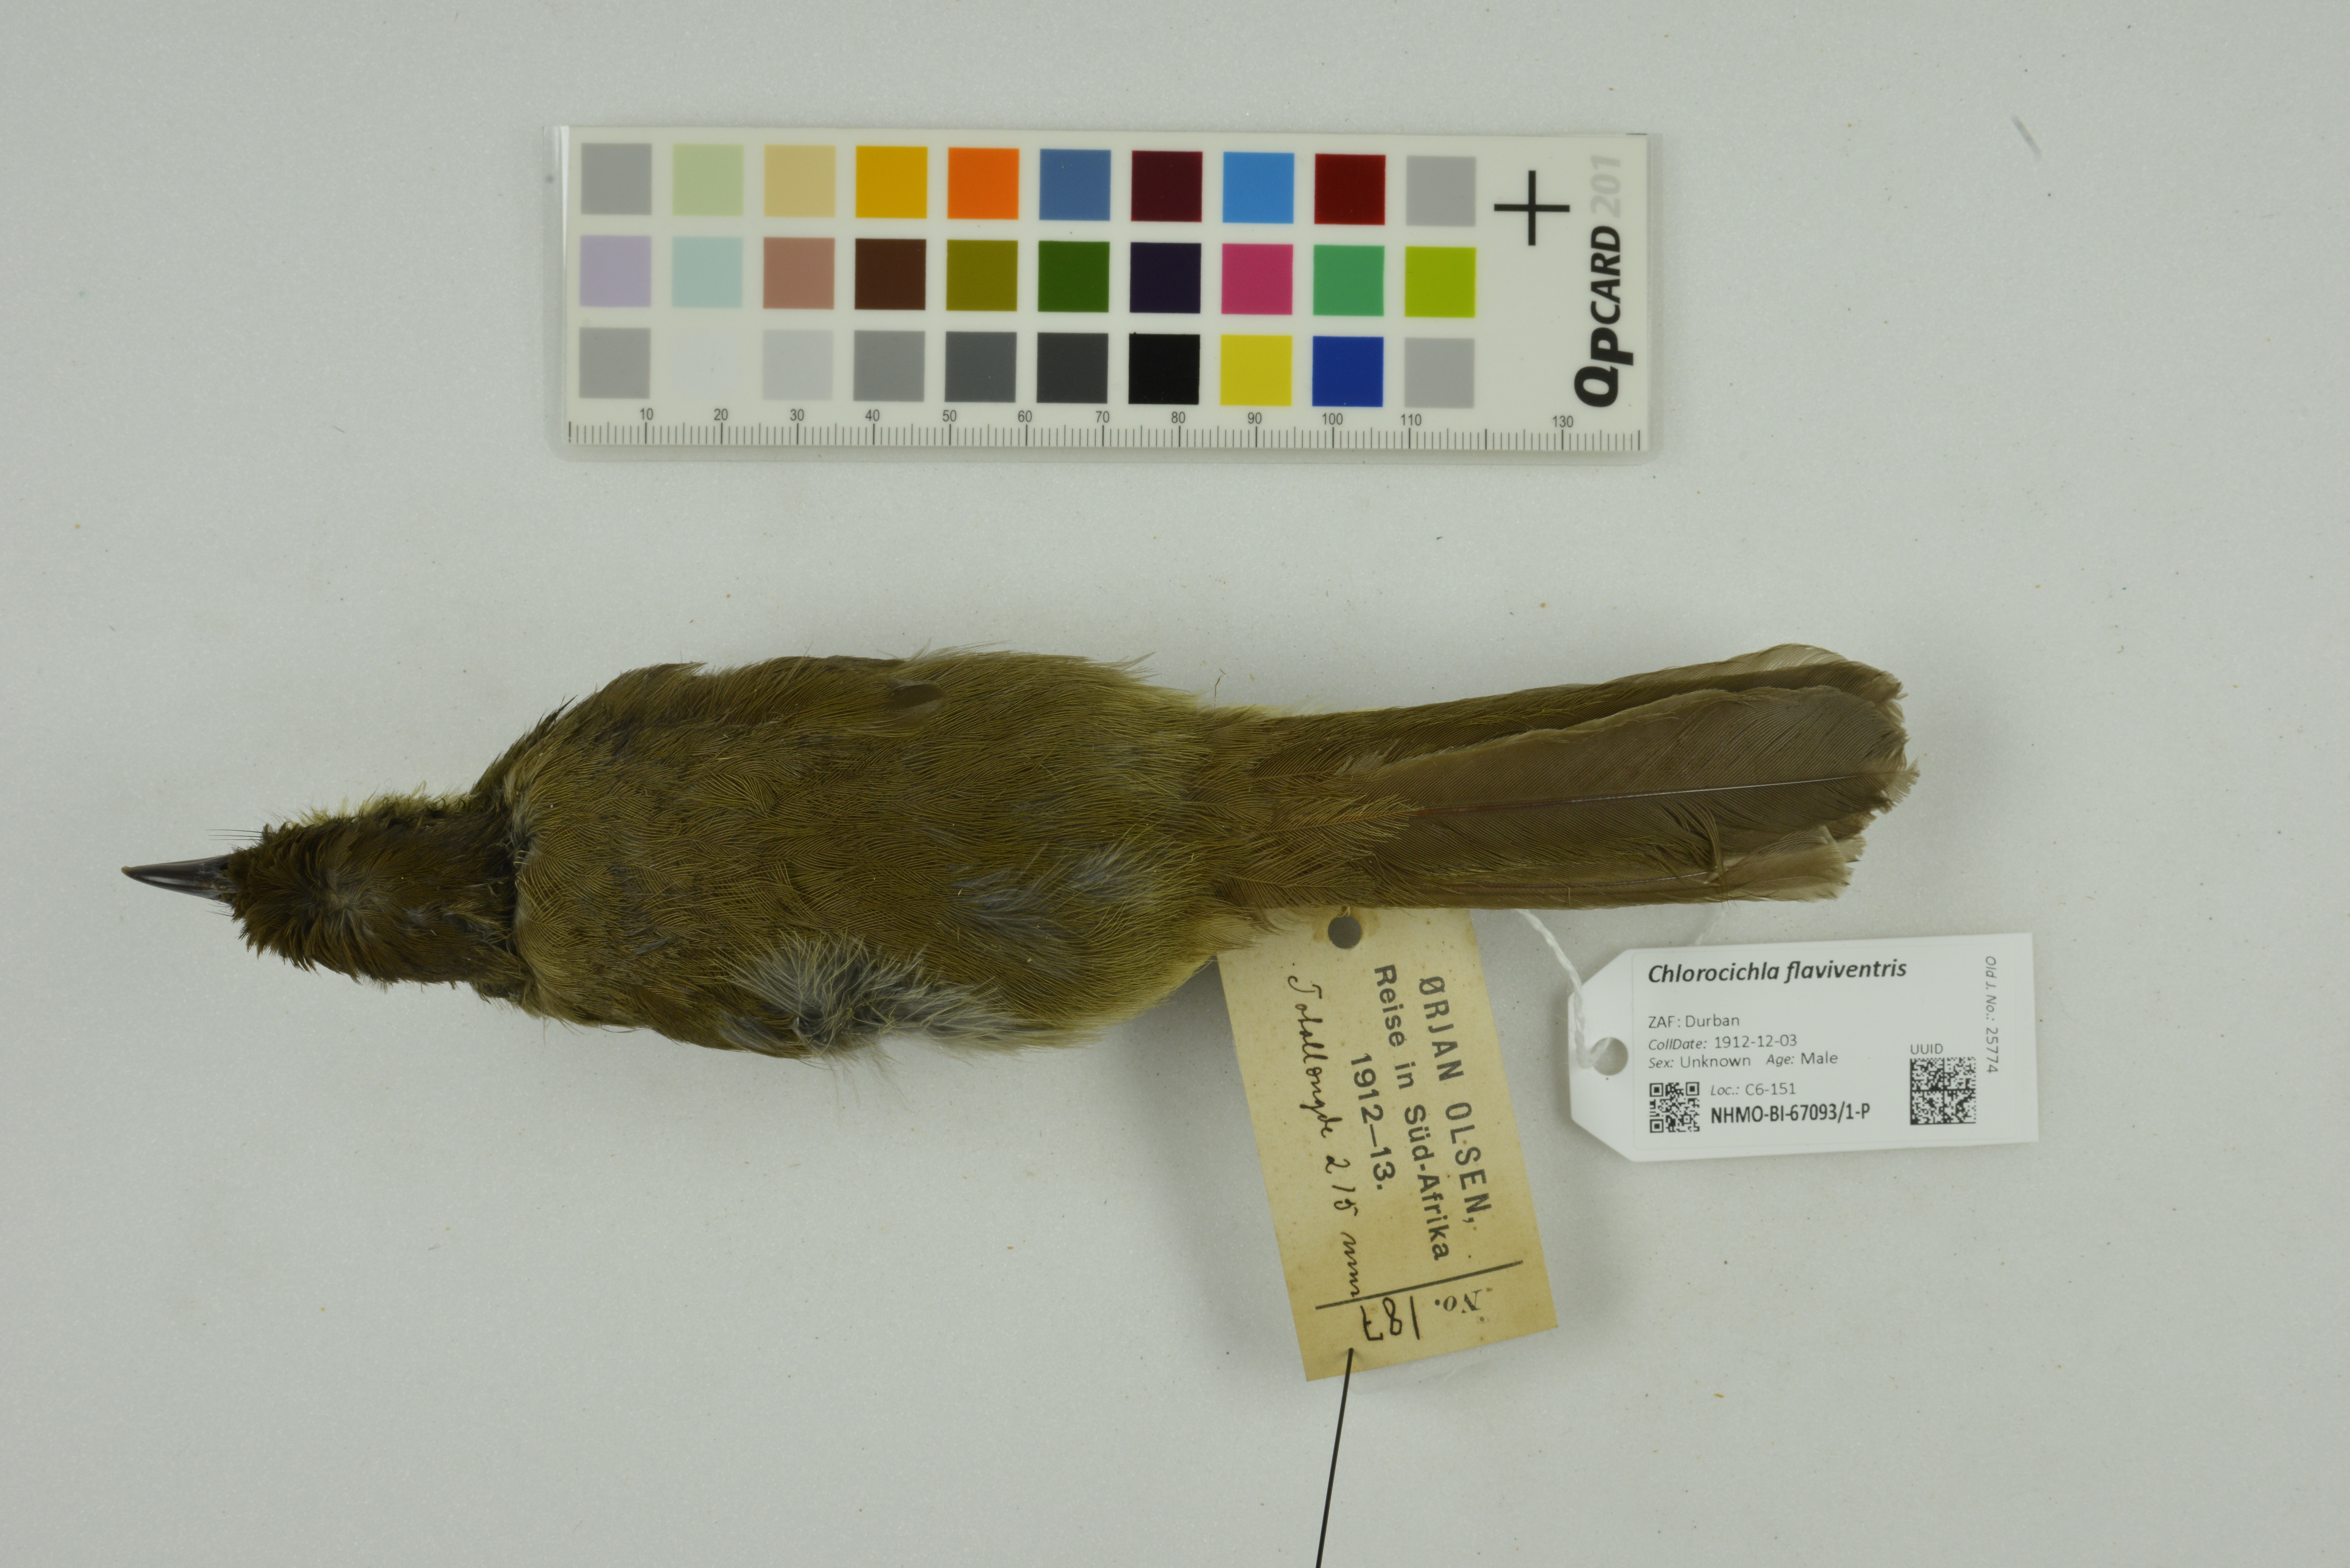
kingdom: Animalia
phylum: Chordata
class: Aves
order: Passeriformes
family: Pycnonotidae
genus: Chlorocichla
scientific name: Chlorocichla flaviventris
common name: Yellow-bellied greenbul
